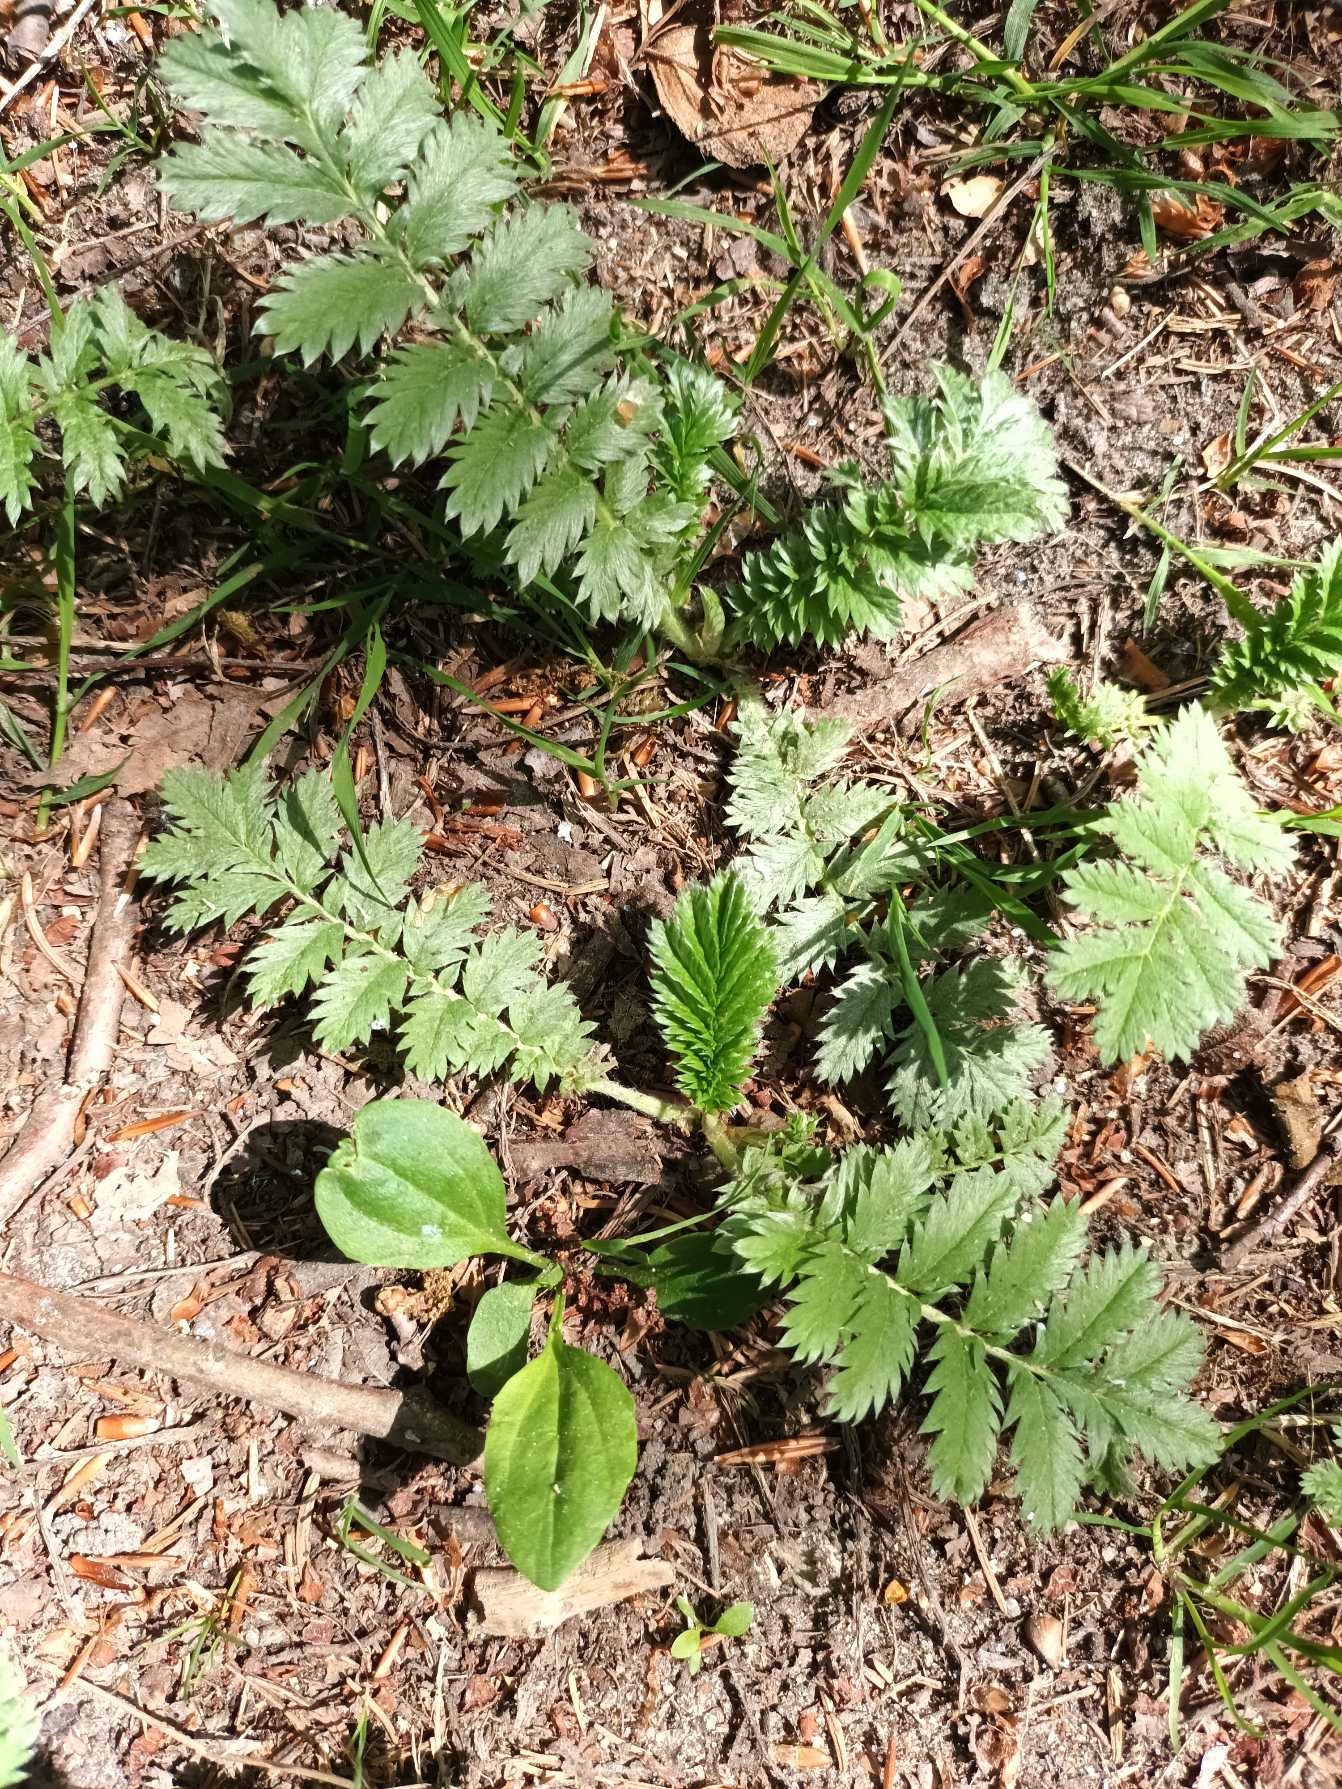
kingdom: Plantae
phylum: Tracheophyta
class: Magnoliopsida
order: Rosales
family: Rosaceae
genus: Argentina
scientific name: Argentina anserina
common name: Gåsepotentil
